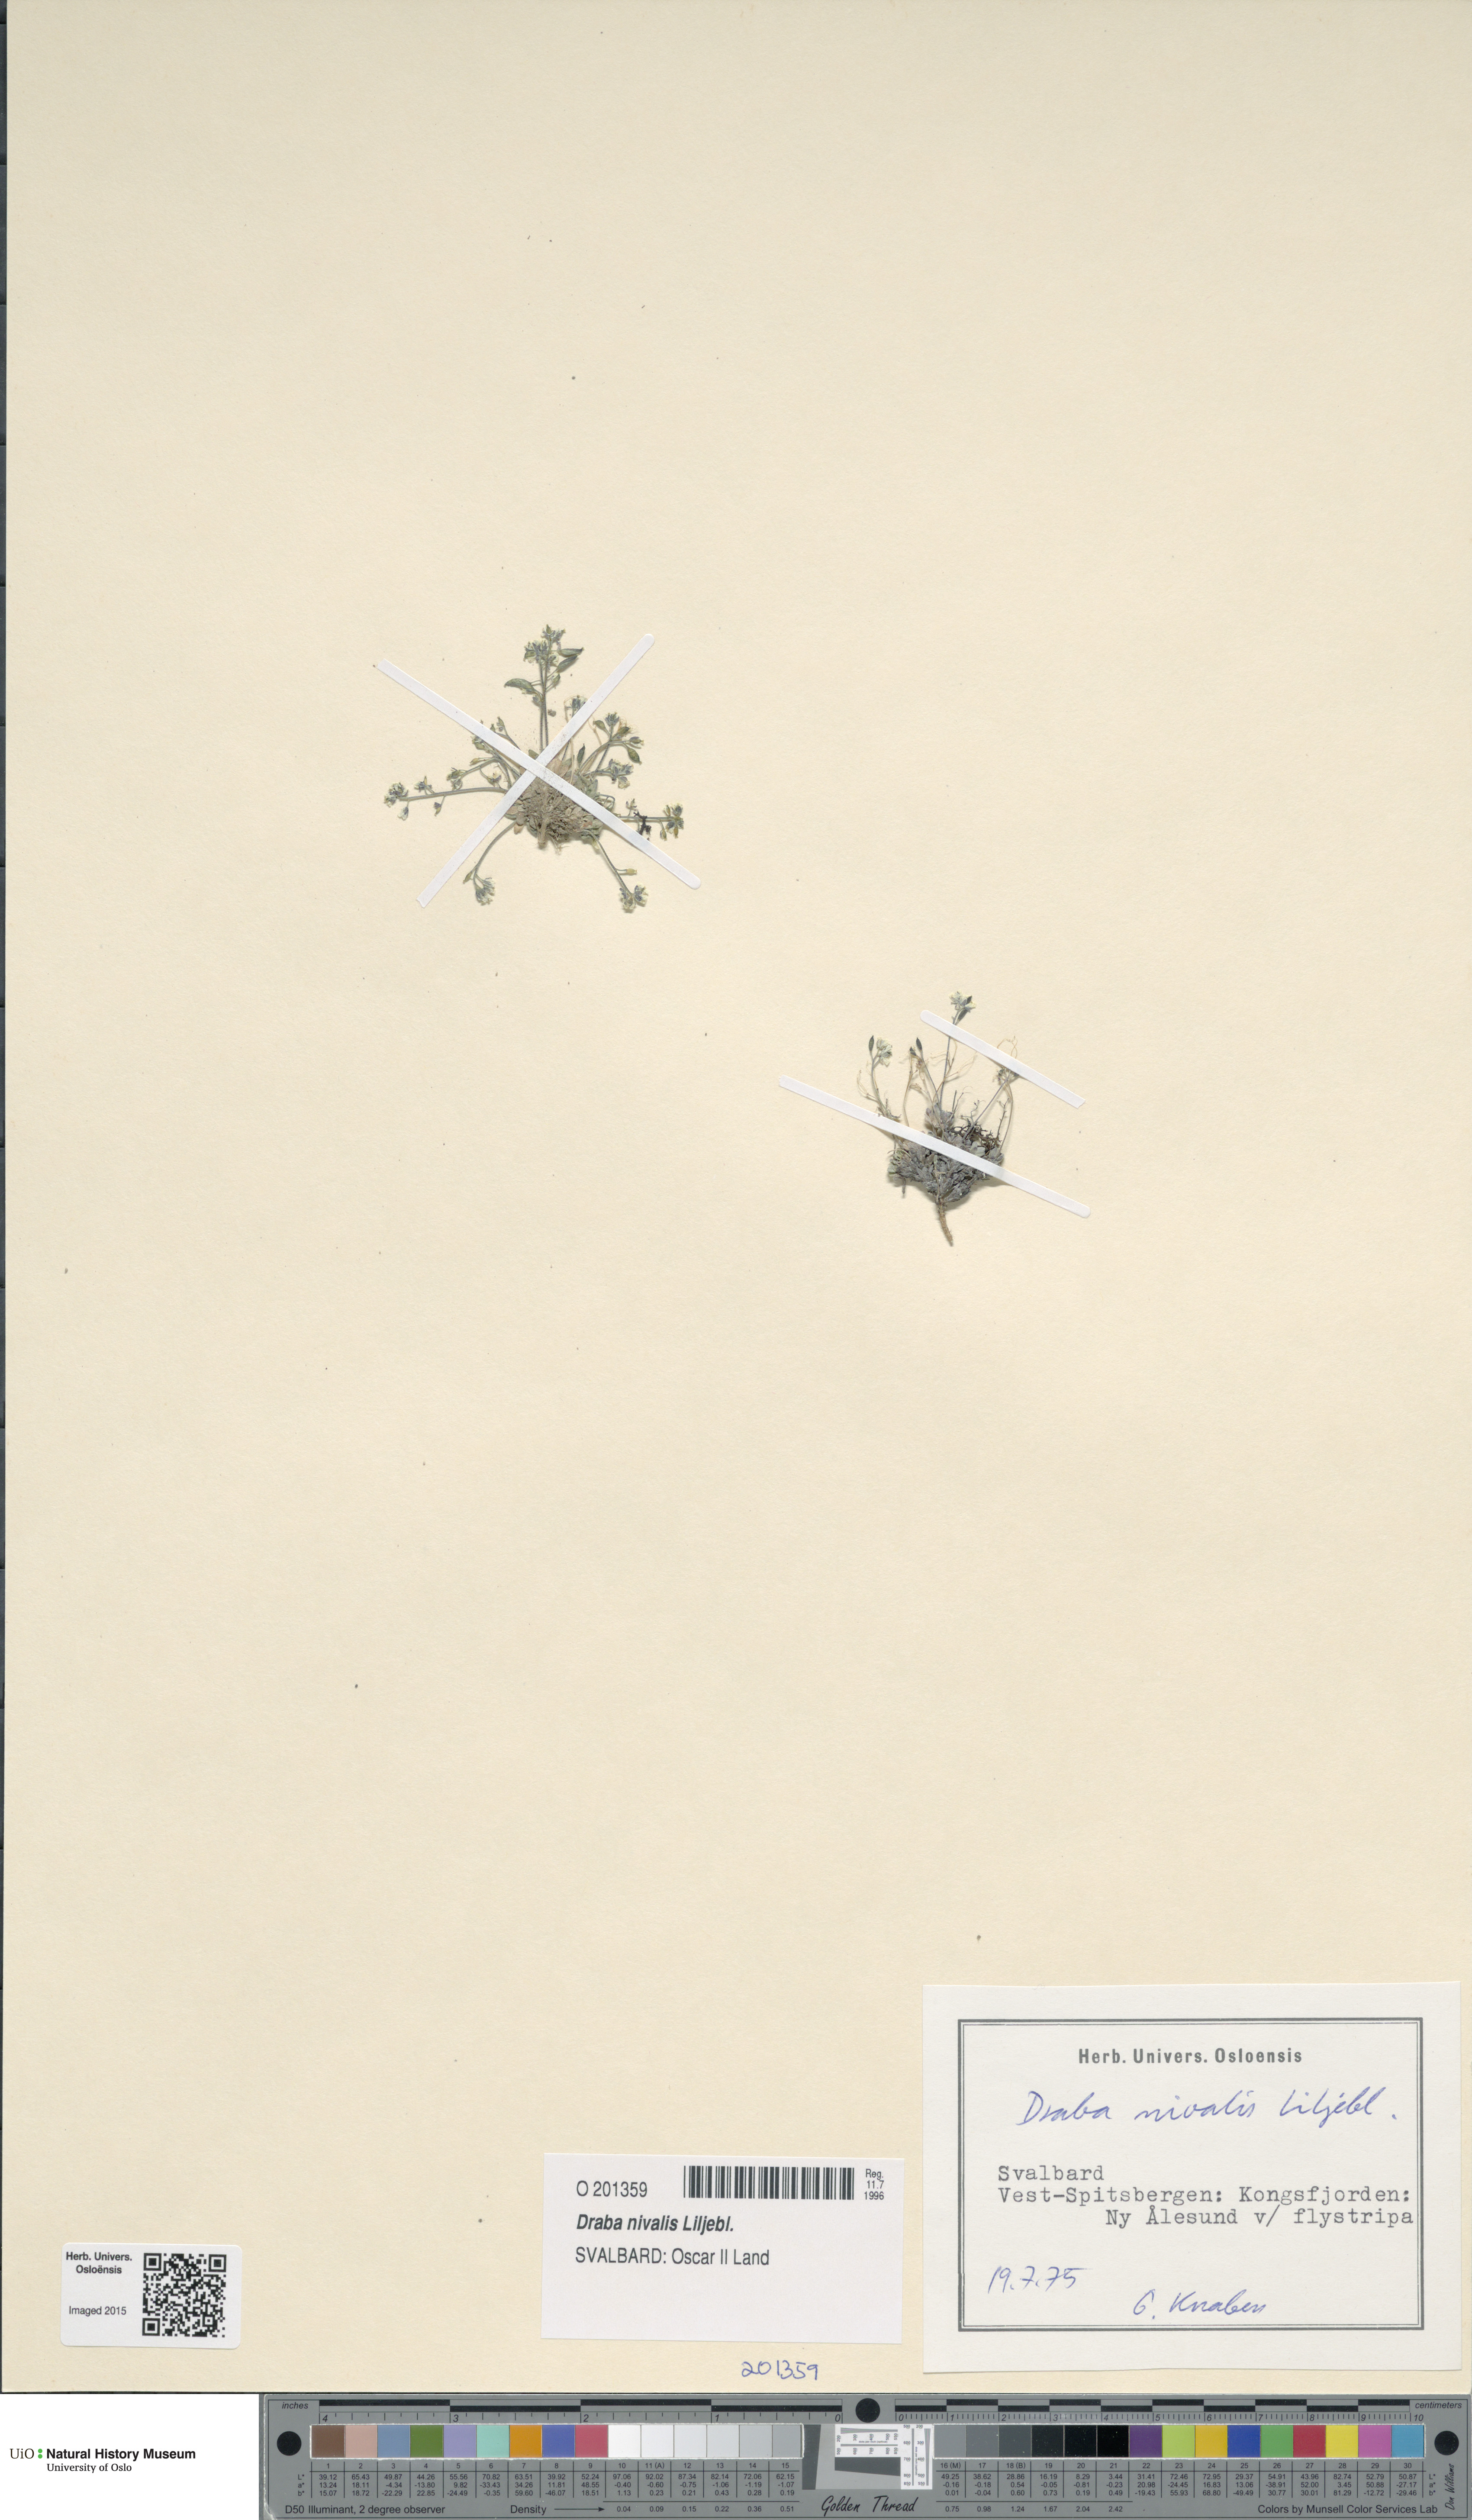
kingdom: Plantae
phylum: Tracheophyta
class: Magnoliopsida
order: Brassicales
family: Brassicaceae
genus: Draba
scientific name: Draba nivalis
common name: Snow draba
